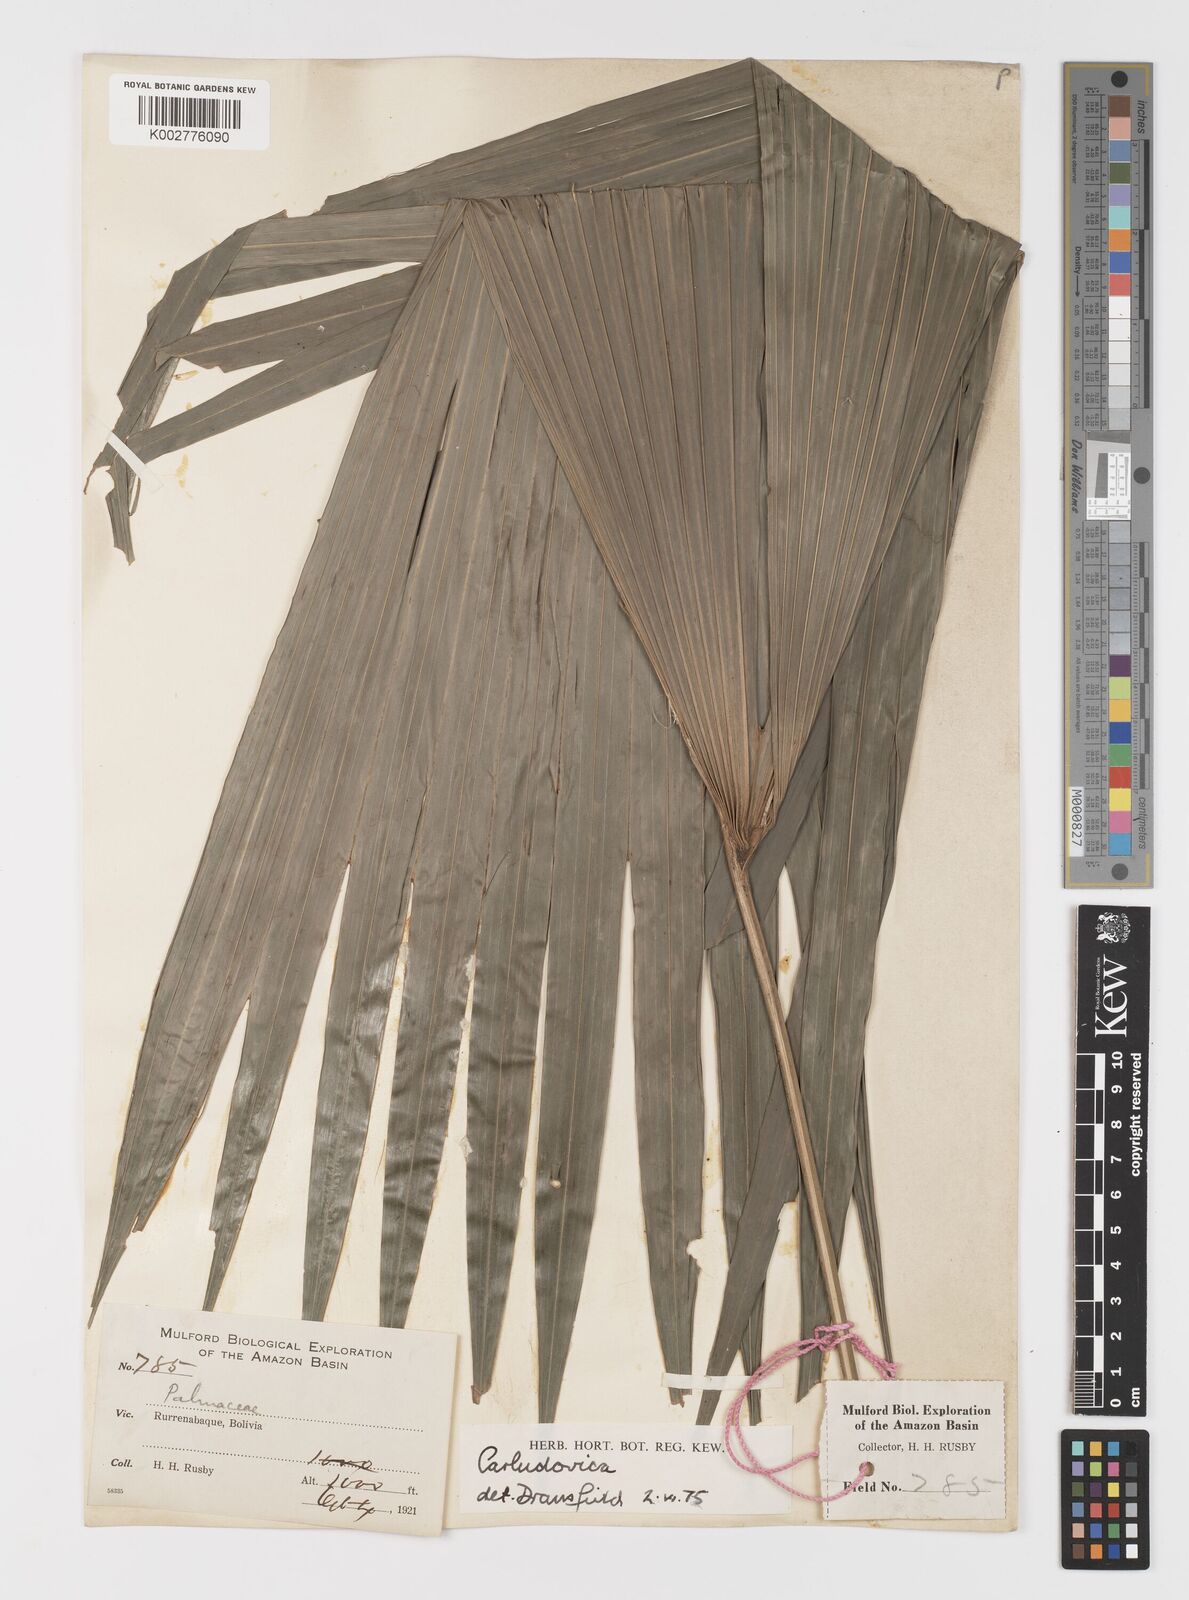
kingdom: Plantae
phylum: Tracheophyta
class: Liliopsida
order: Pandanales
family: Cyclanthaceae
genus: Carludovica
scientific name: Carludovica
